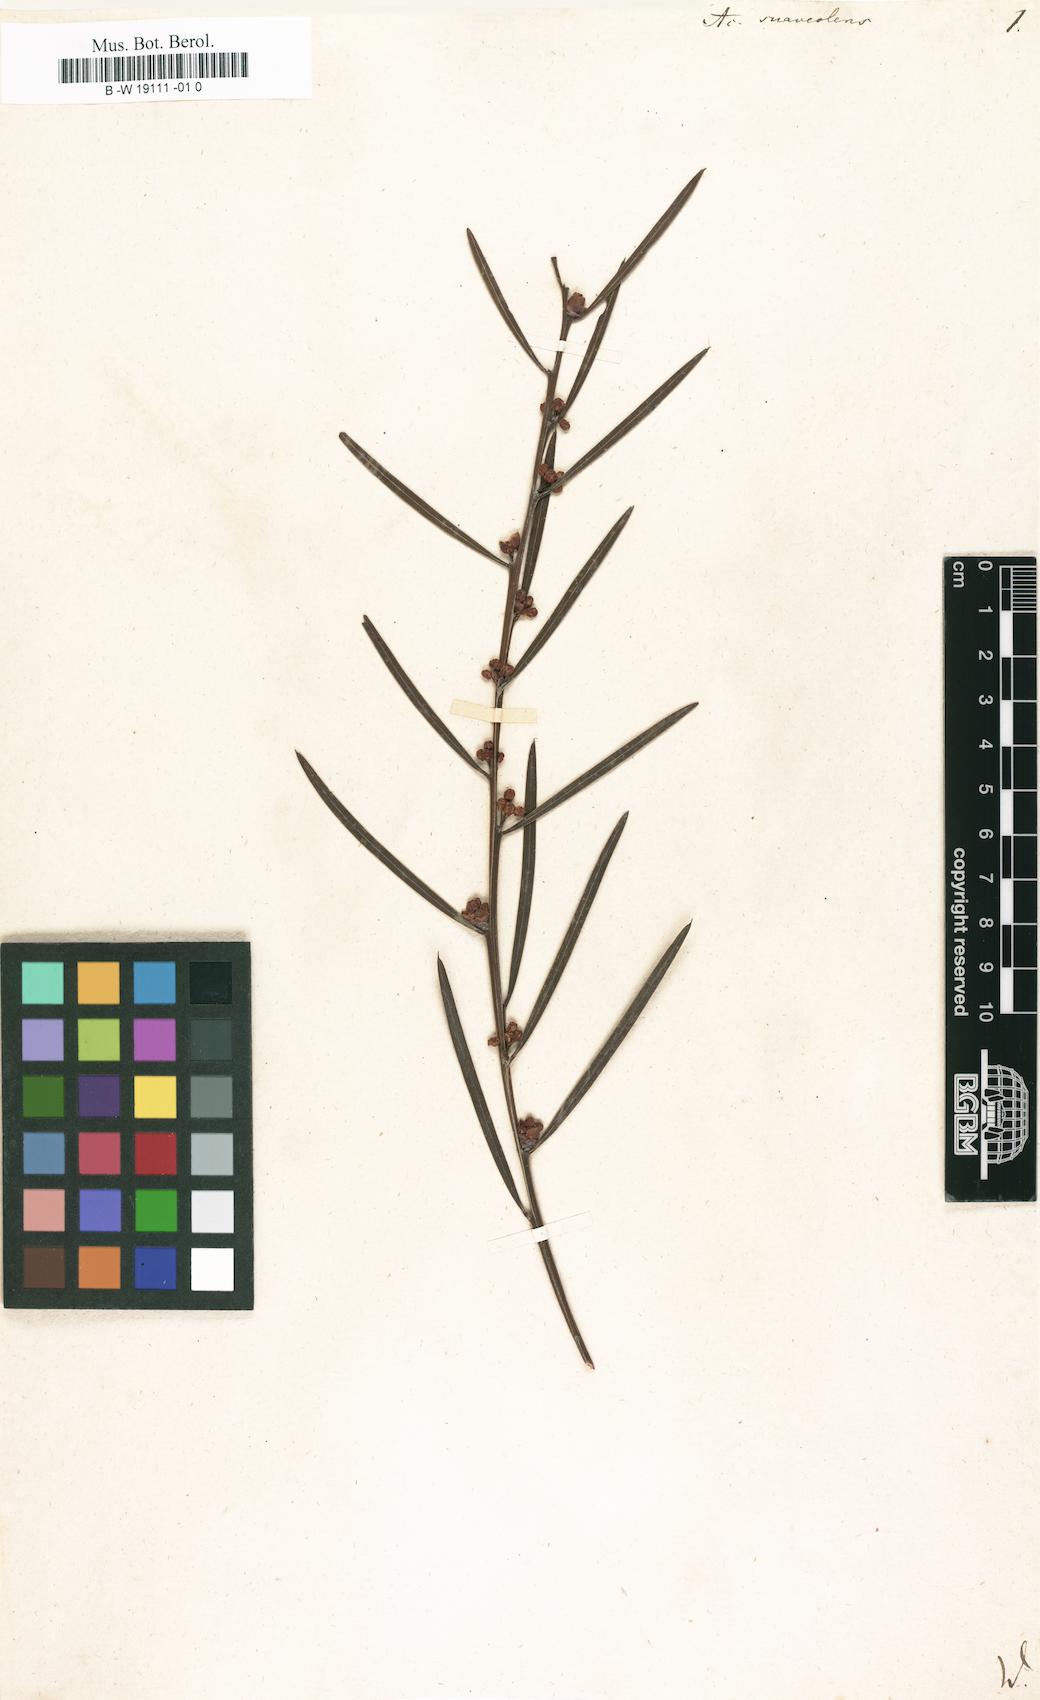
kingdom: Plantae
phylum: Tracheophyta
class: Magnoliopsida
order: Fabales
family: Fabaceae
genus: Acacia
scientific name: Acacia suaveolens
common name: Sweet acacia
